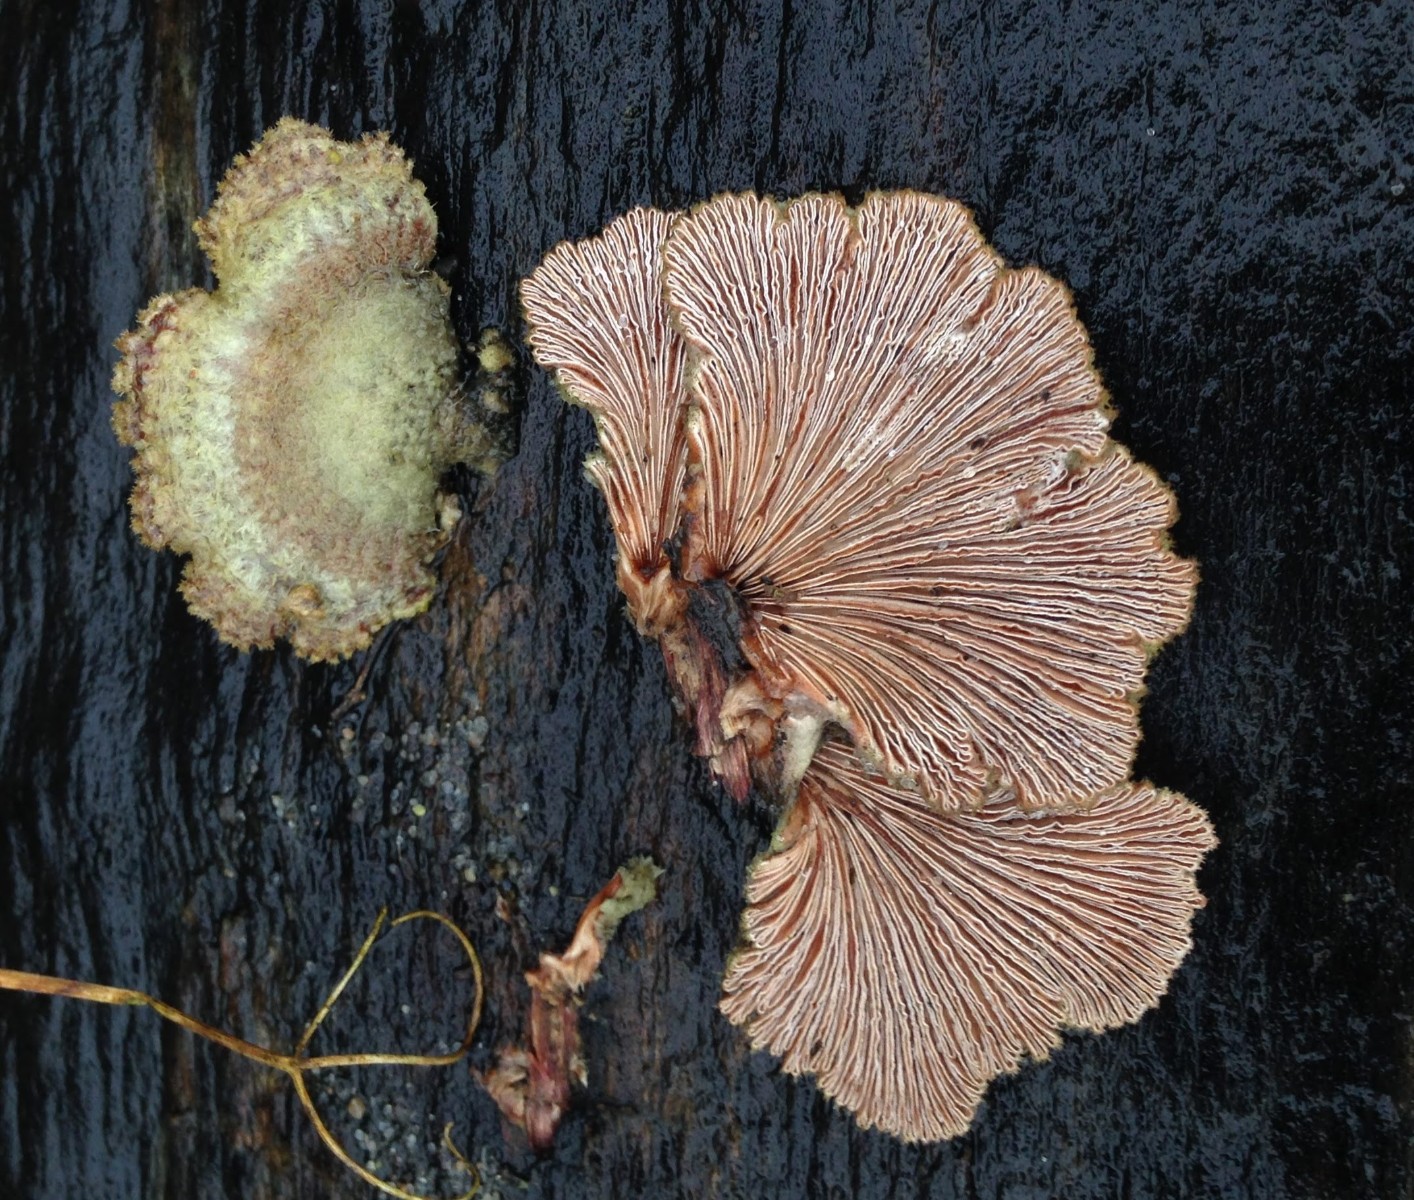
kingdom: Fungi
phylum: Basidiomycota
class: Agaricomycetes
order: Agaricales
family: Schizophyllaceae
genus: Schizophyllum
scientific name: Schizophyllum commune
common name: kløvblad
